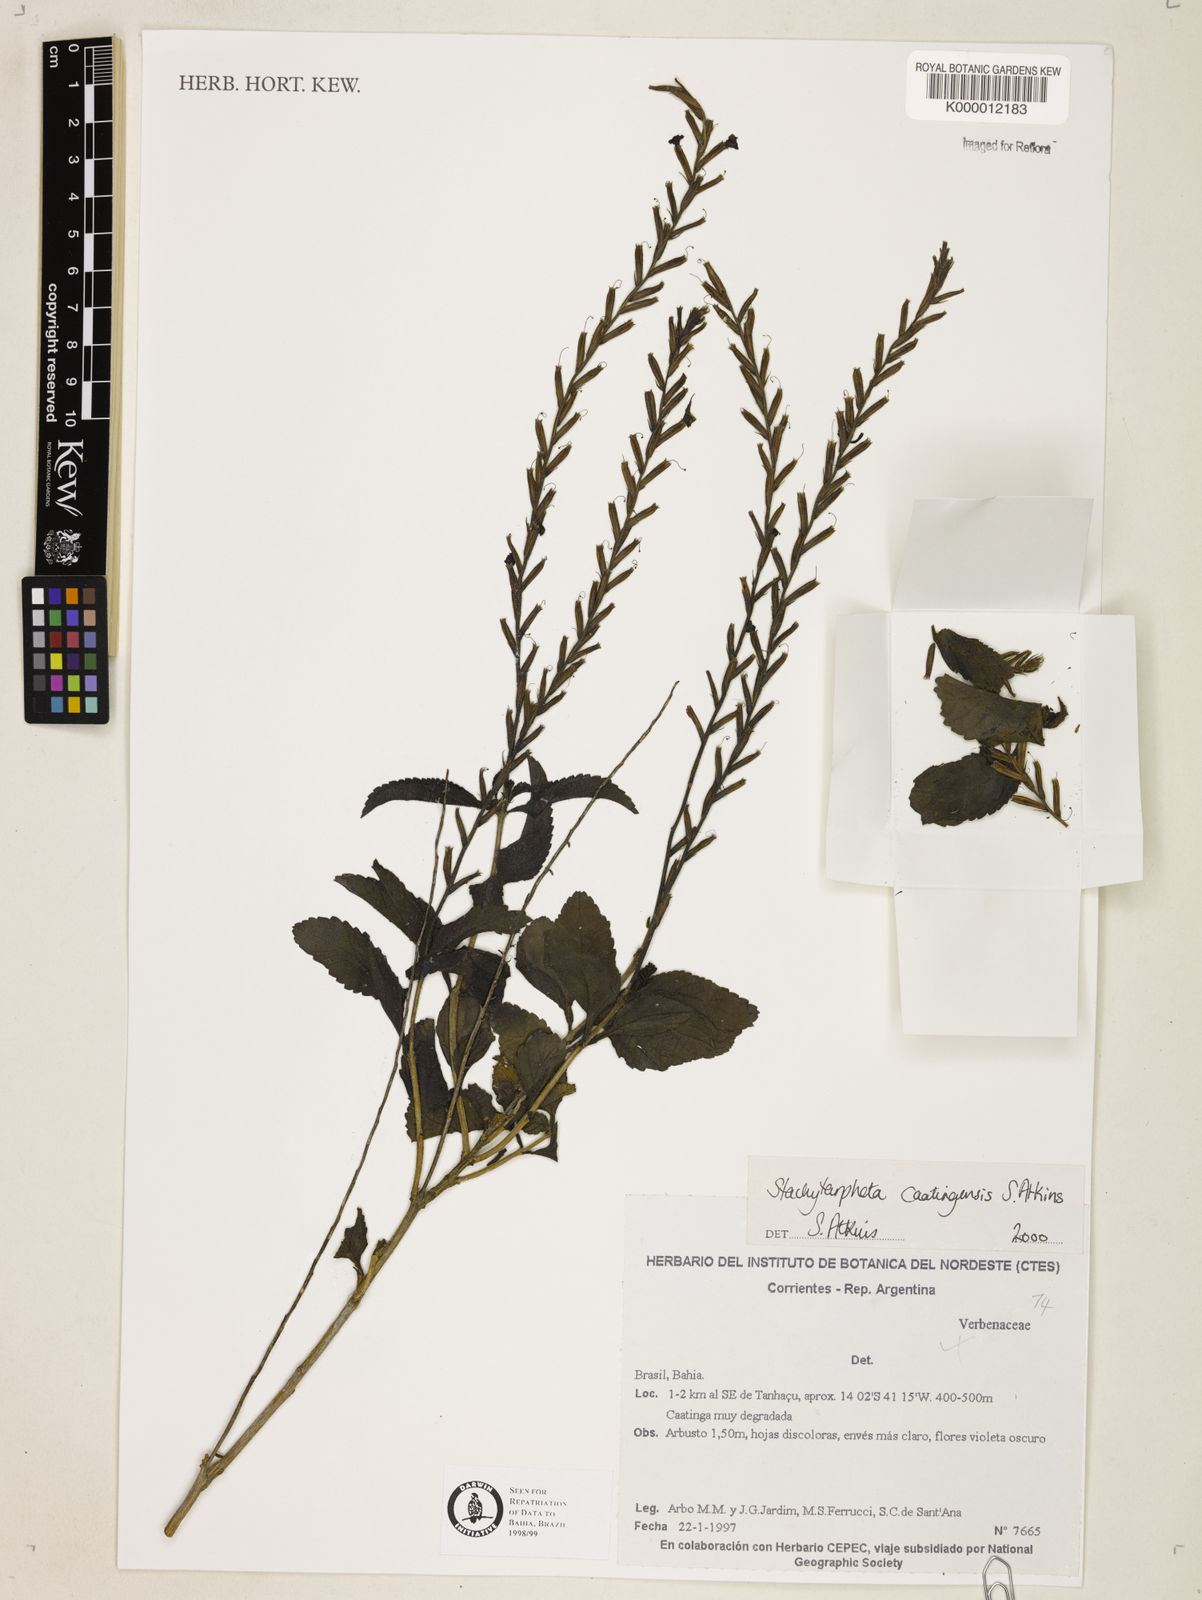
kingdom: Plantae
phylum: Tracheophyta
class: Magnoliopsida
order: Lamiales
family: Verbenaceae
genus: Stachytarpheta
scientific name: Stachytarpheta brasiliensis
